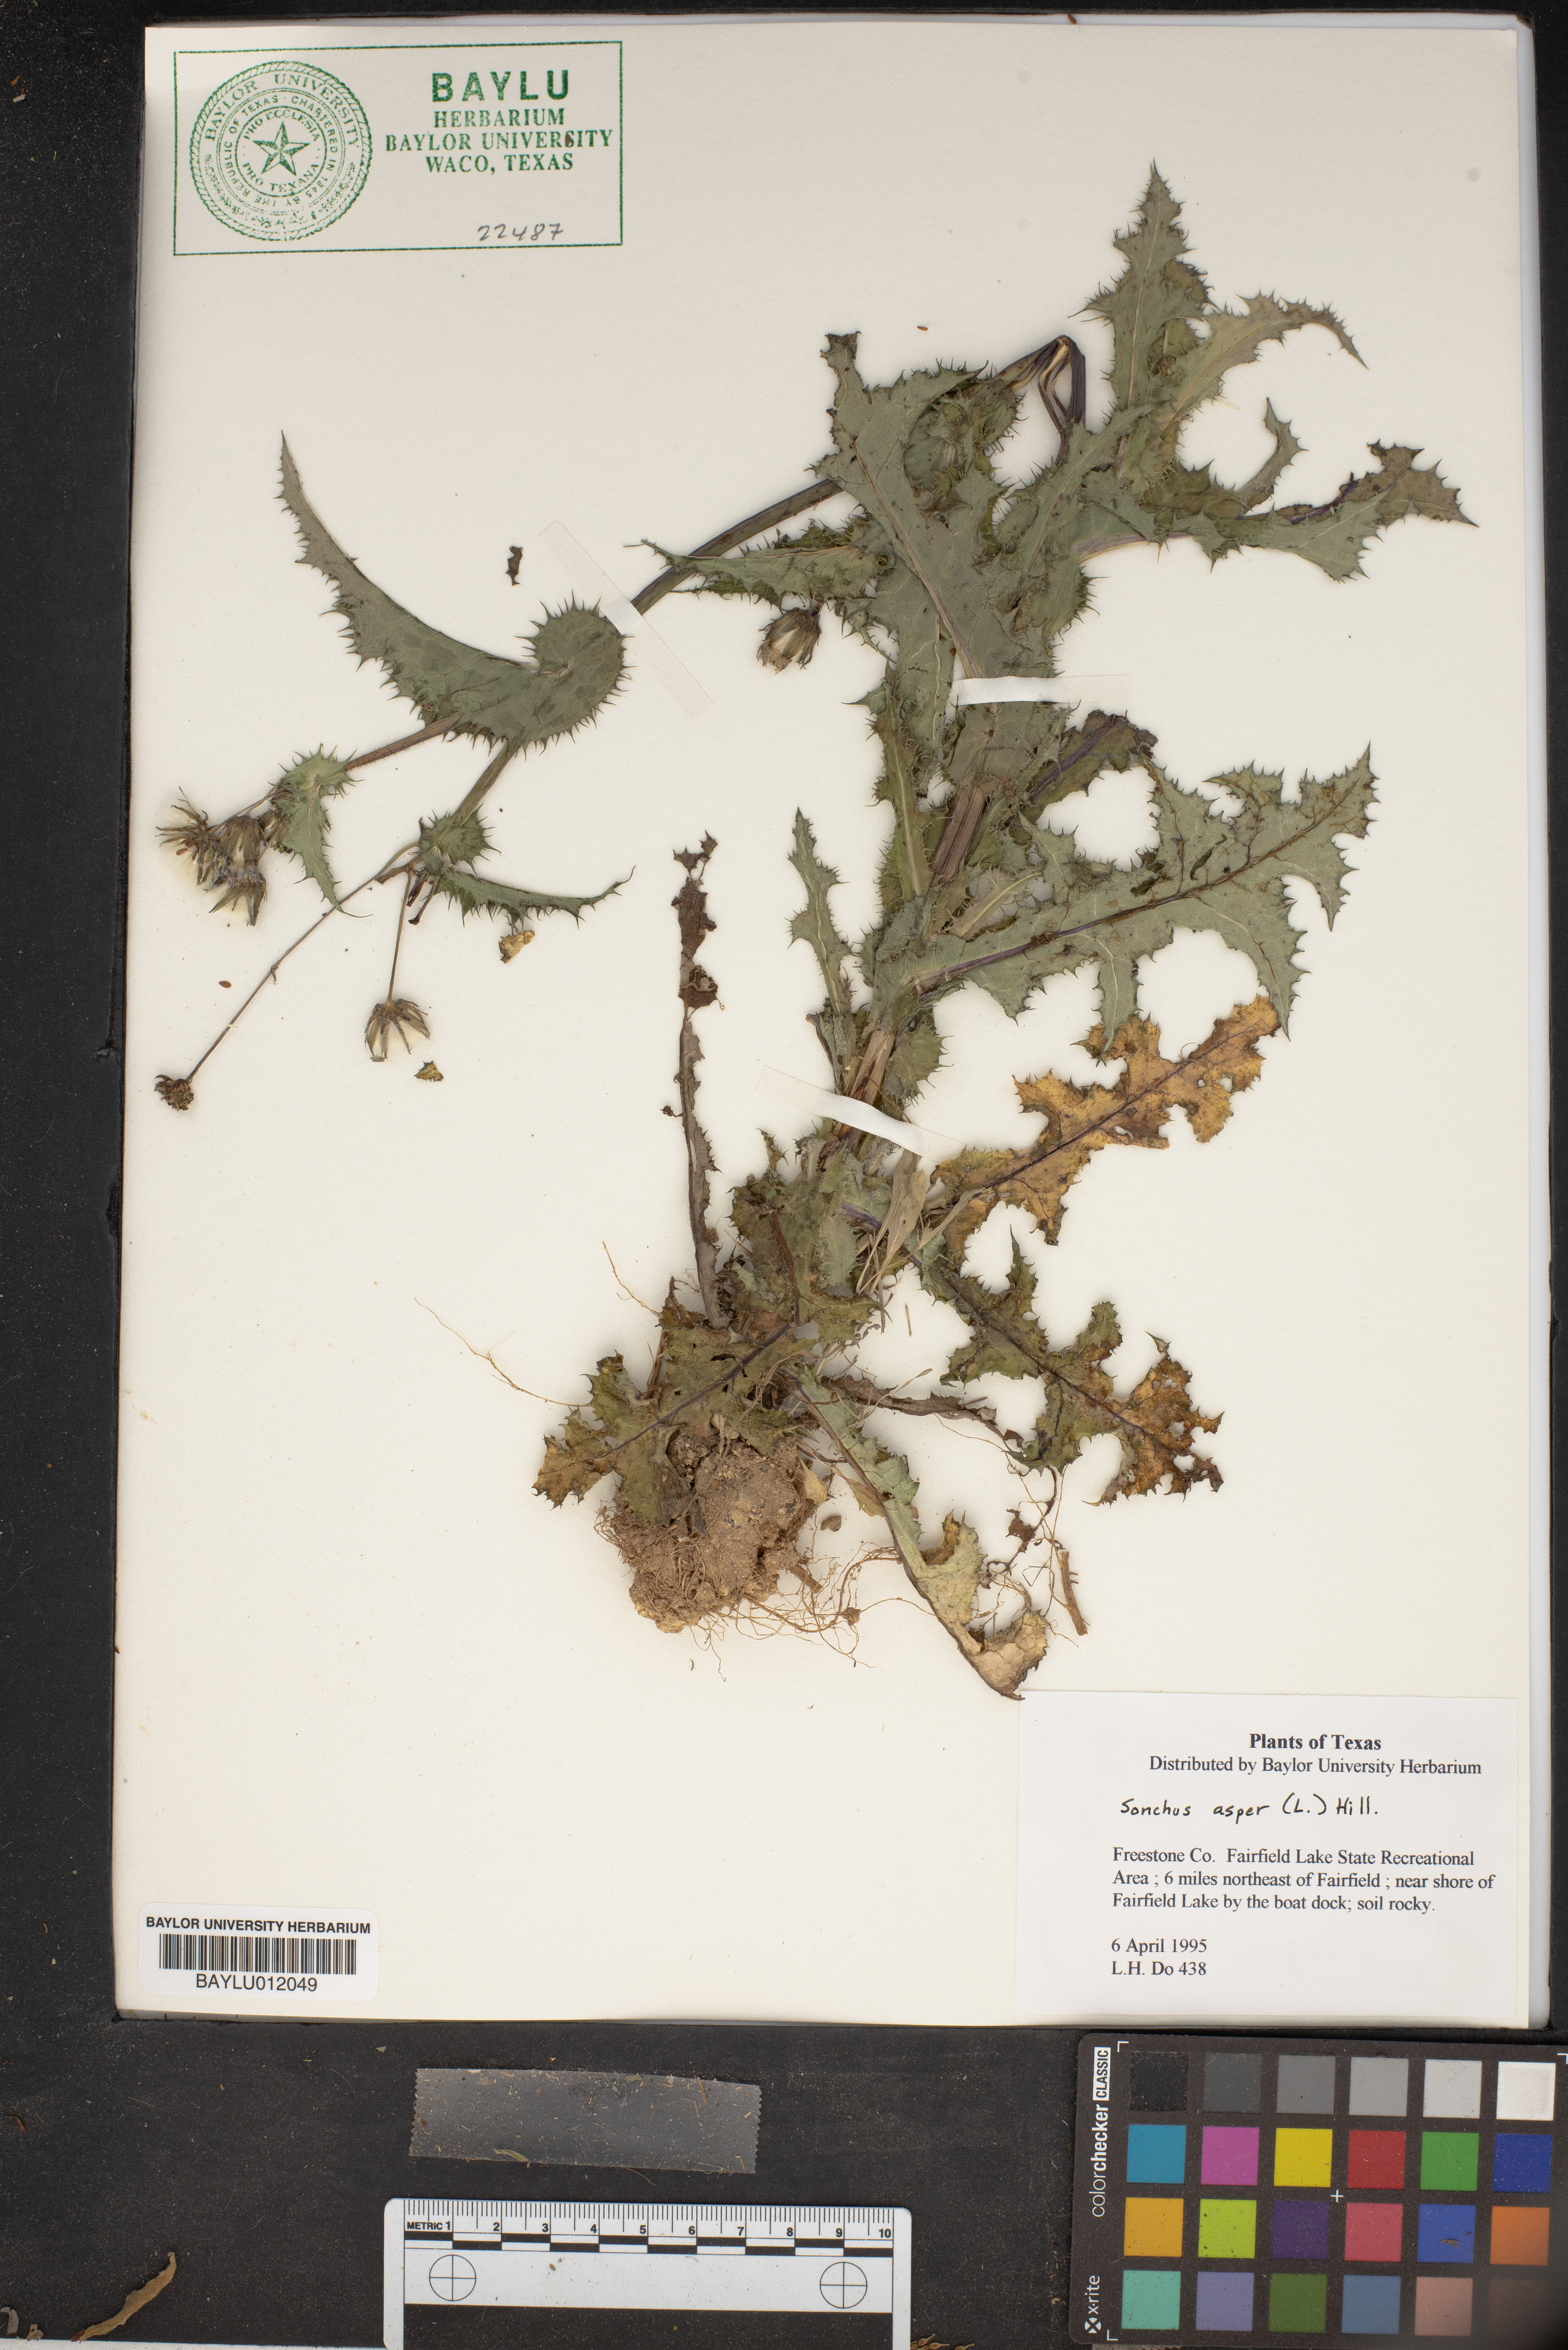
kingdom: Plantae
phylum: Tracheophyta
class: Magnoliopsida
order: Asterales
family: Asteraceae
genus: Sonchus
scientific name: Sonchus asper
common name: Prickly sow-thistle
